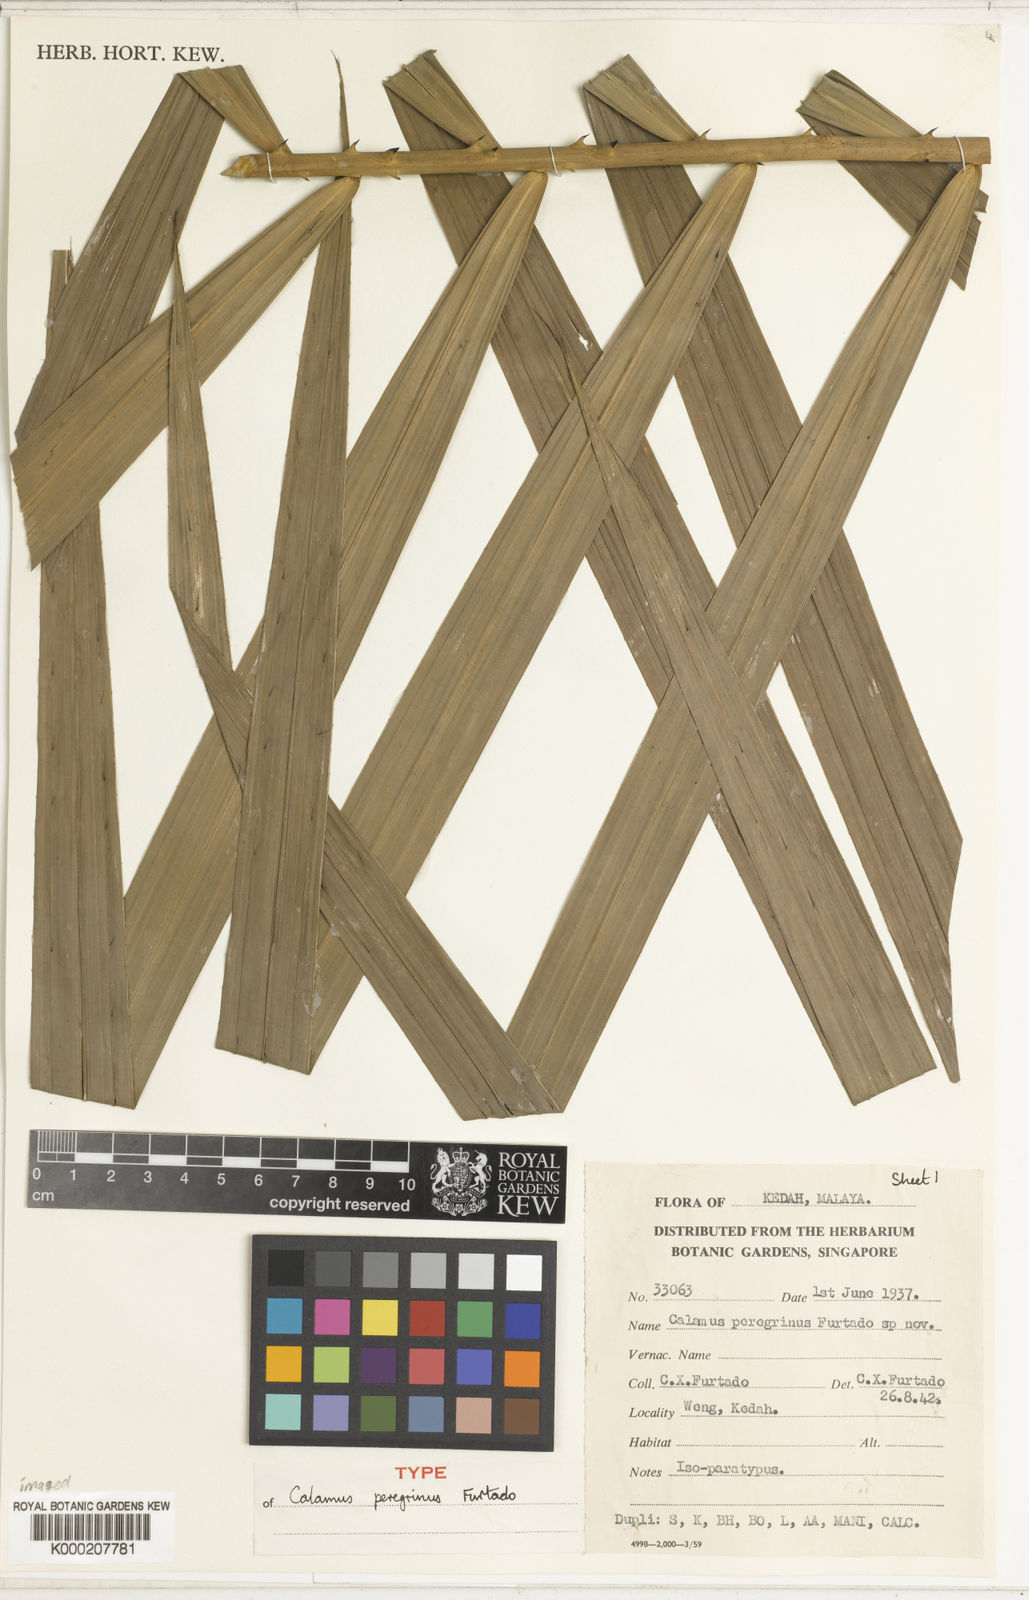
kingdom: Plantae
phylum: Tracheophyta
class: Liliopsida
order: Arecales
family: Arecaceae
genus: Calamus
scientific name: Calamus peregrinus
